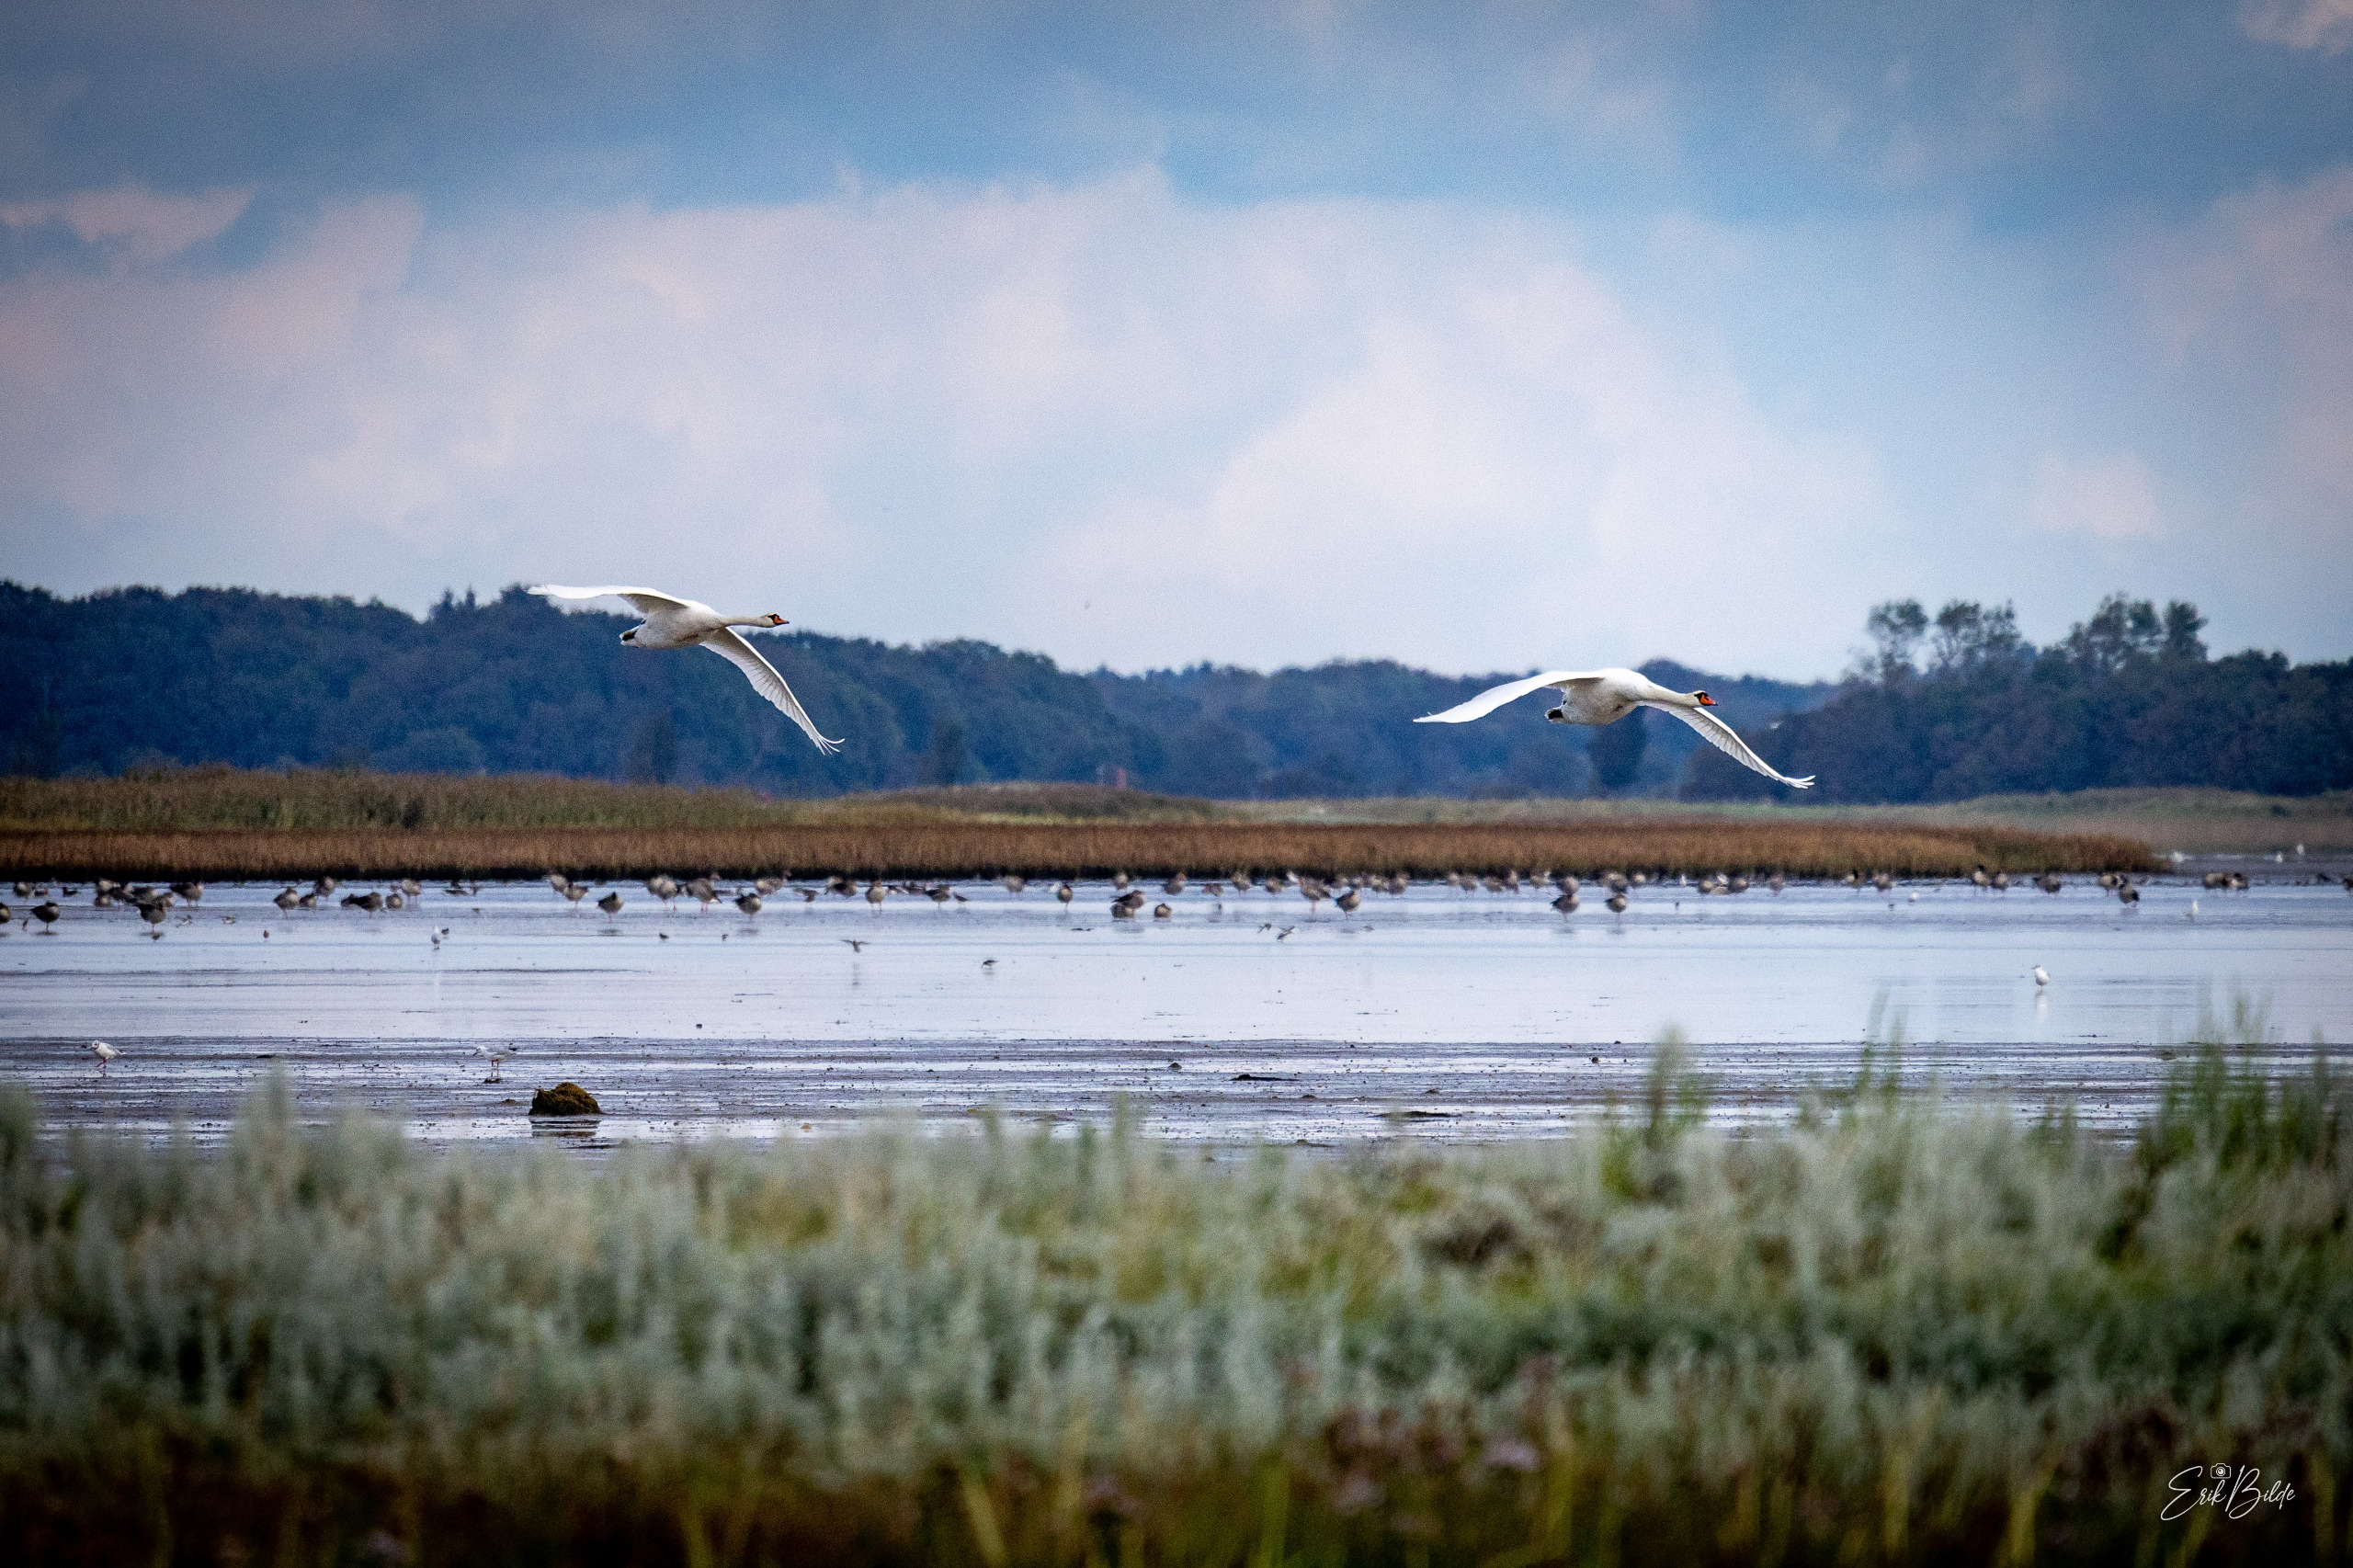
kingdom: Animalia
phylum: Chordata
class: Aves
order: Anseriformes
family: Anatidae
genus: Cygnus
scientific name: Cygnus olor
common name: Knopsvane
